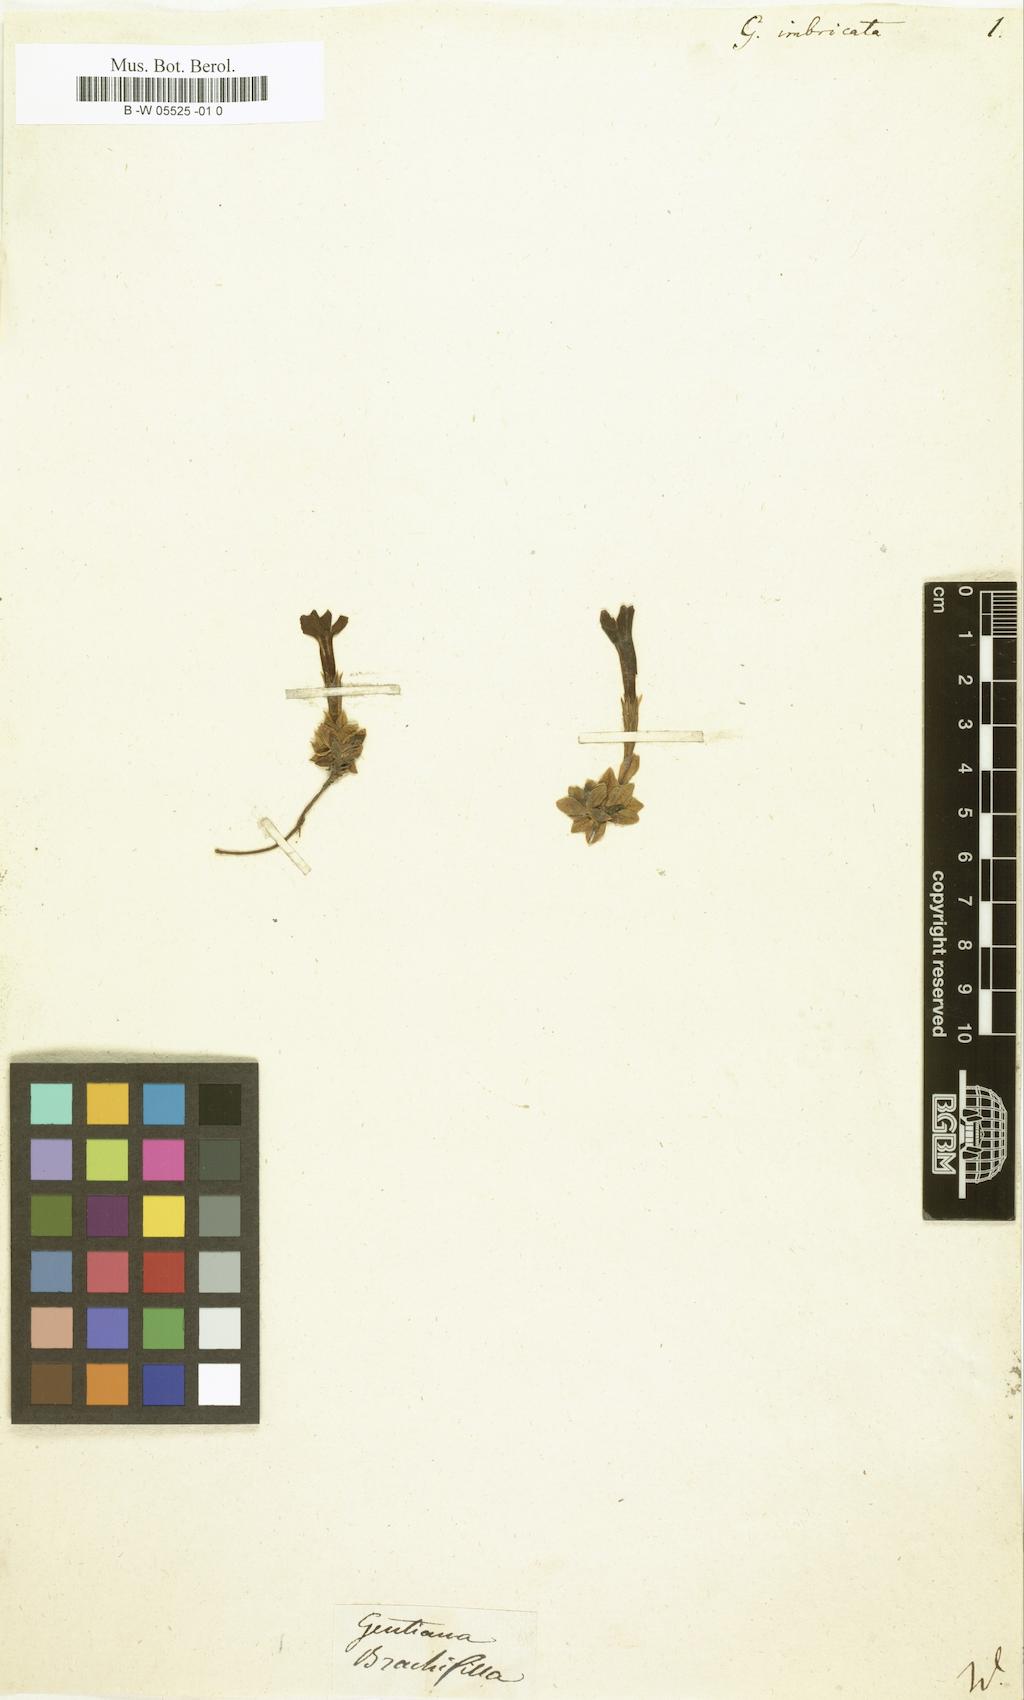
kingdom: Plantae
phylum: Tracheophyta
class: Magnoliopsida
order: Gentianales
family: Gentianaceae
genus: Gentiana
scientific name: Gentiana imbricata
